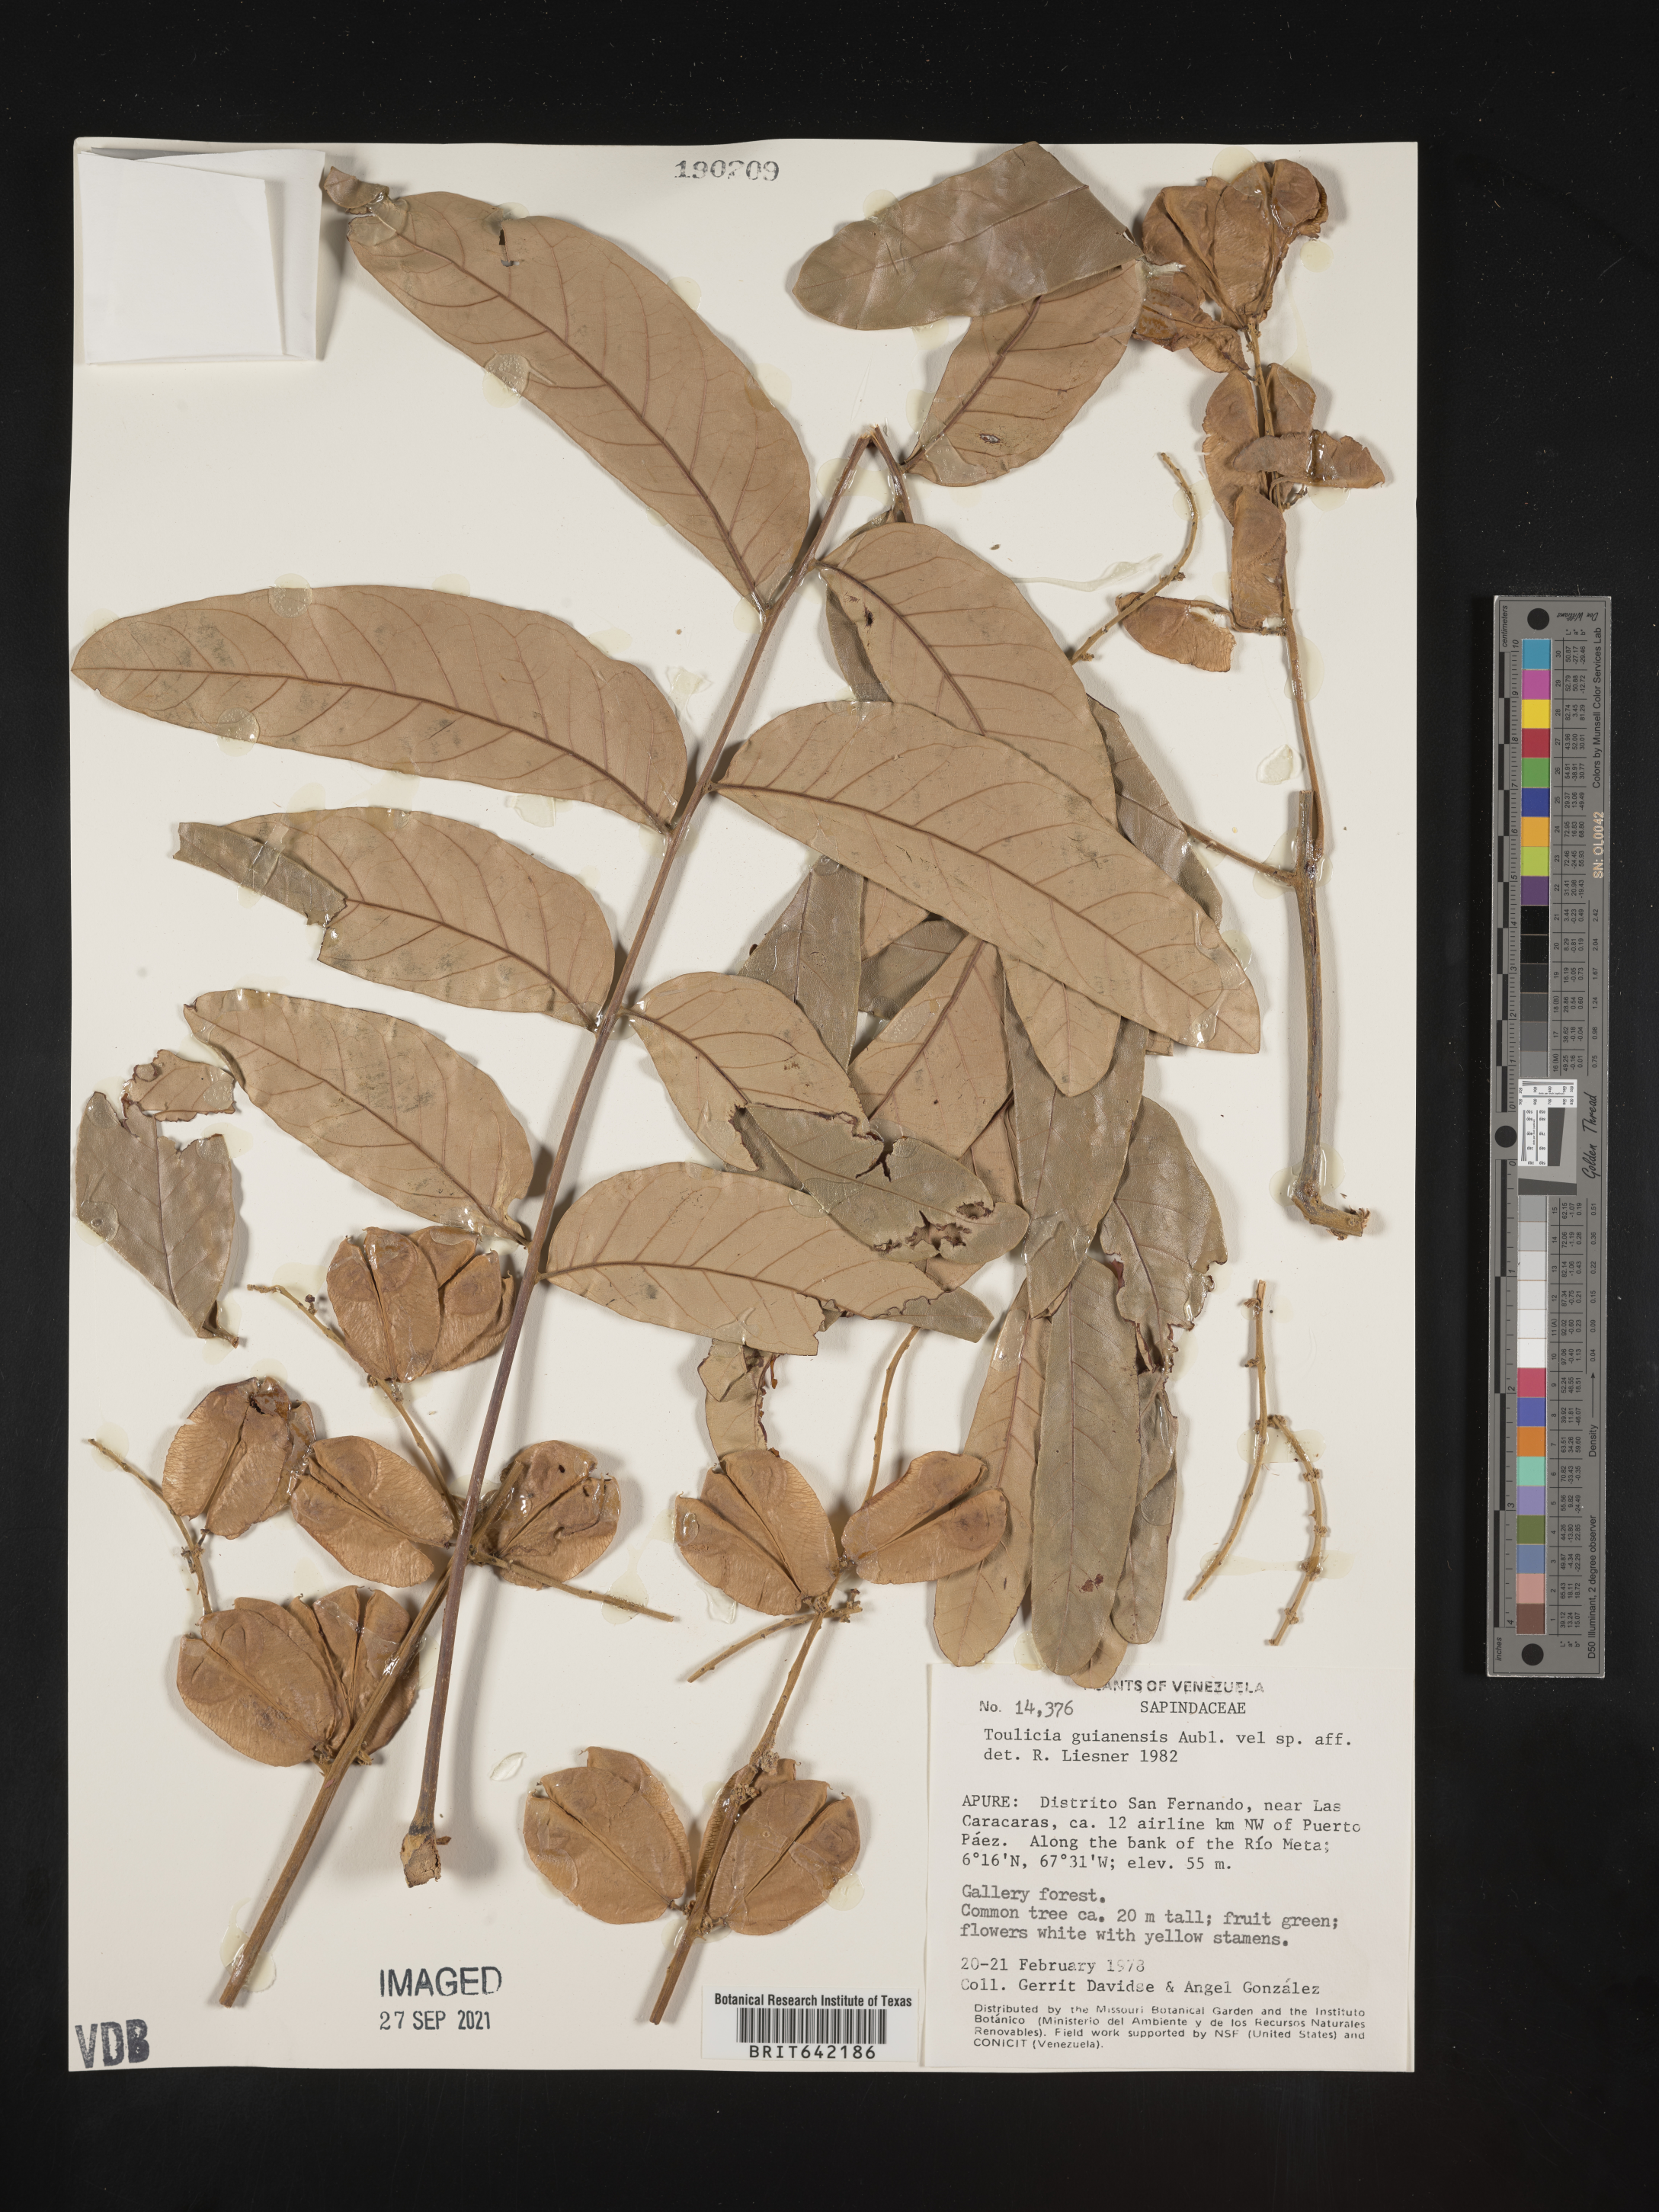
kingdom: Plantae
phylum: Tracheophyta
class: Magnoliopsida
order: Sapindales
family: Sapindaceae
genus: Toulicia
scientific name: Toulicia
